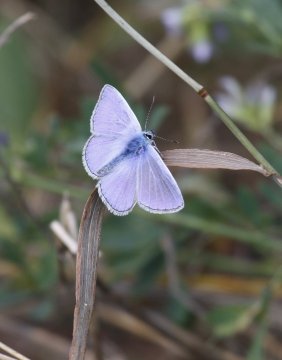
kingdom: Animalia
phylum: Arthropoda
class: Insecta
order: Lepidoptera
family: Lycaenidae
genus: Polyommatus
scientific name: Polyommatus icarus
